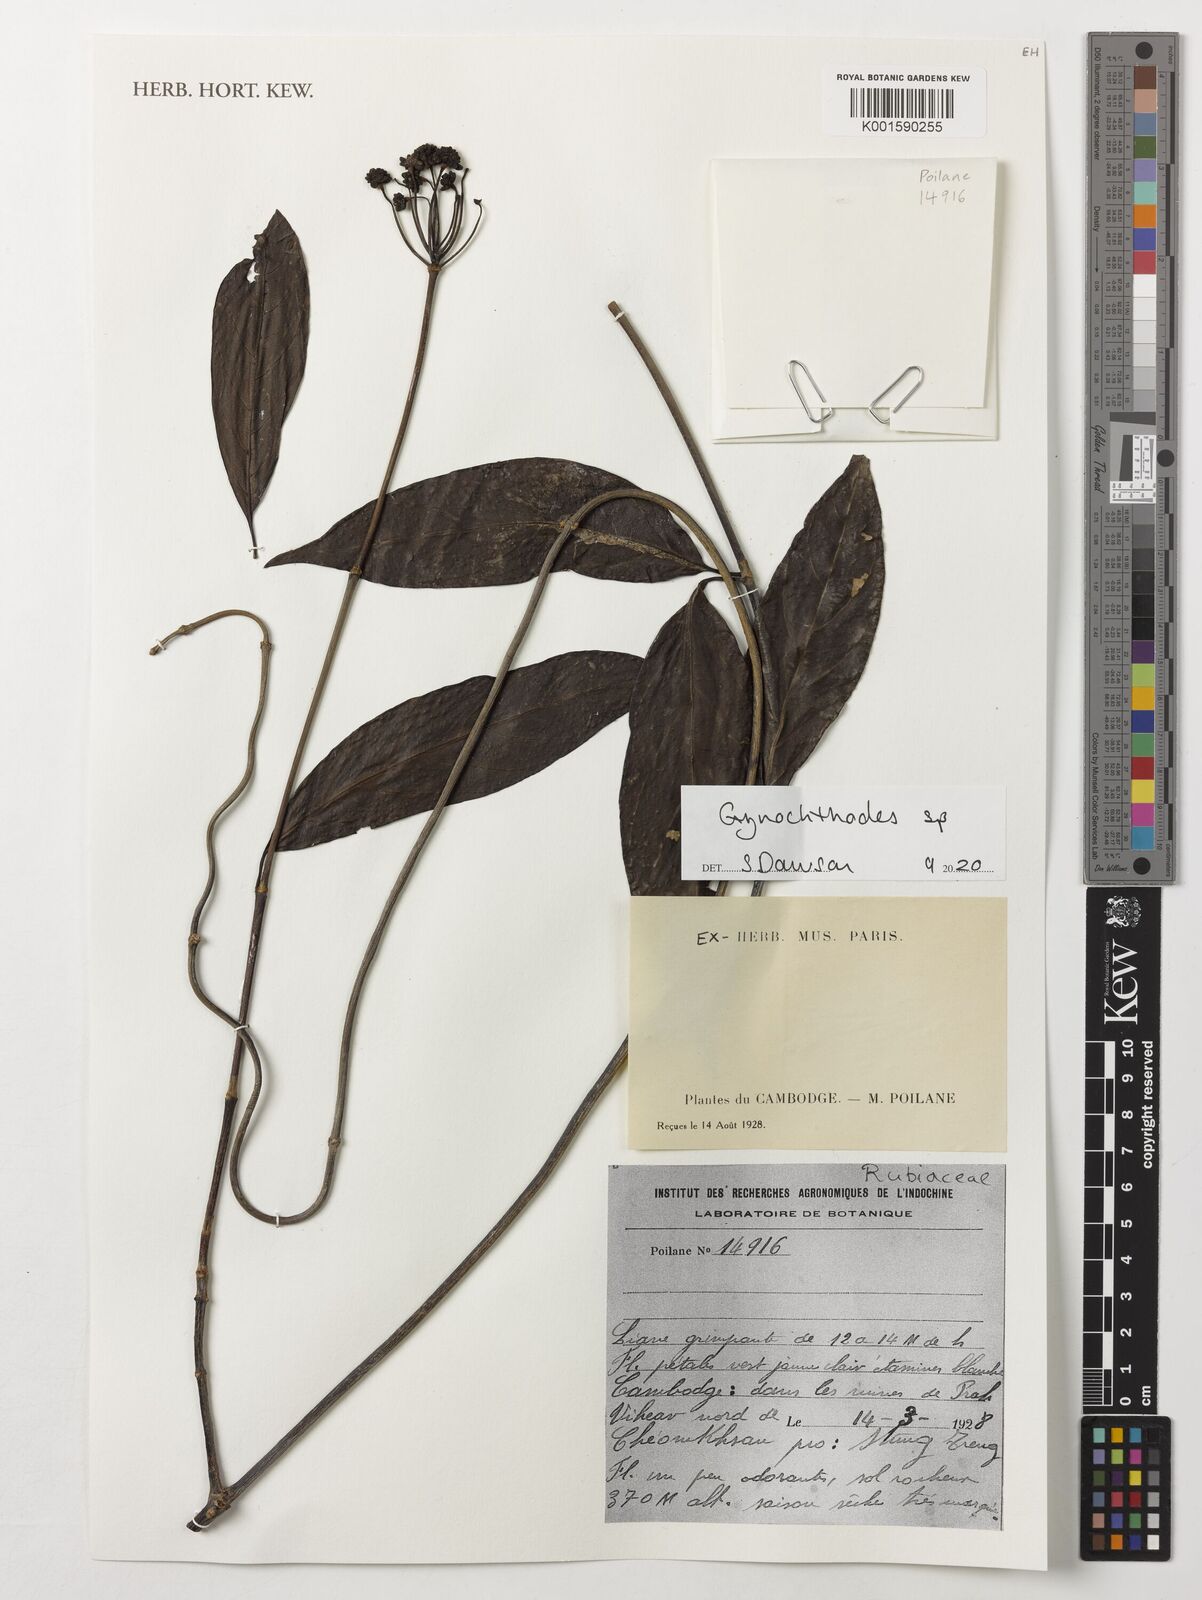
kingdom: Plantae
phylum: Tracheophyta
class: Magnoliopsida
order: Gentianales
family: Rubiaceae
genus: Gynochthodes
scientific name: Gynochthodes
